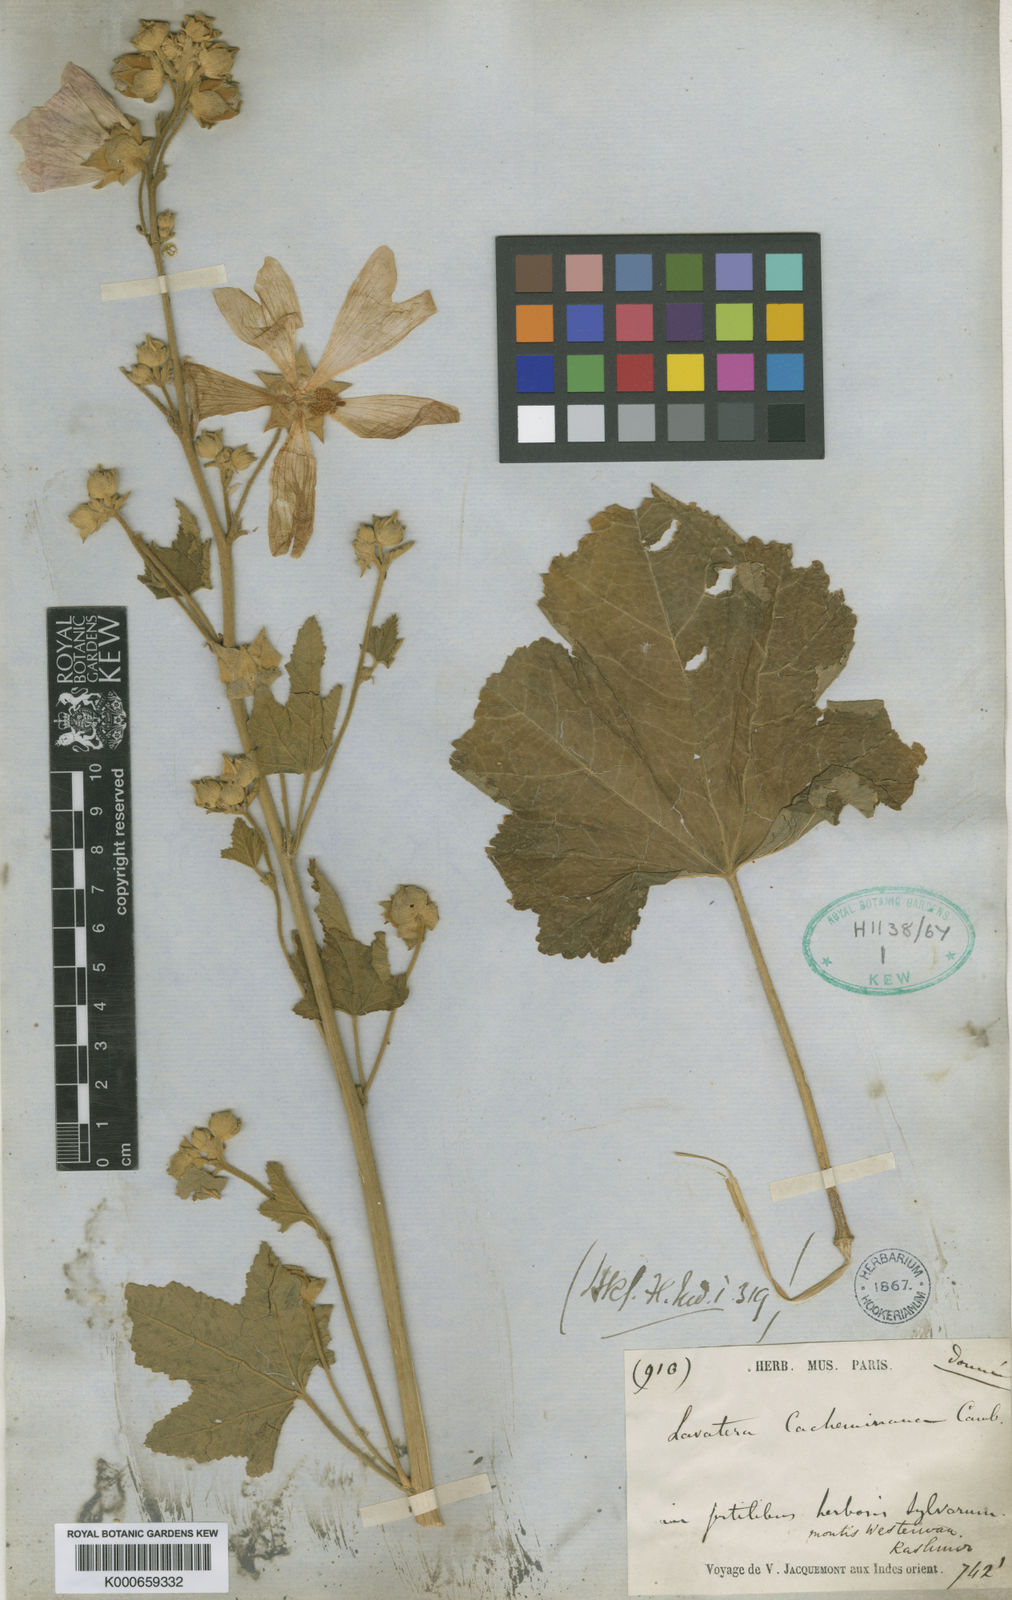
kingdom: Plantae
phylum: Tracheophyta
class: Magnoliopsida
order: Malvales
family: Malvaceae
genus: Malva
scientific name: Malva cachemiriana
